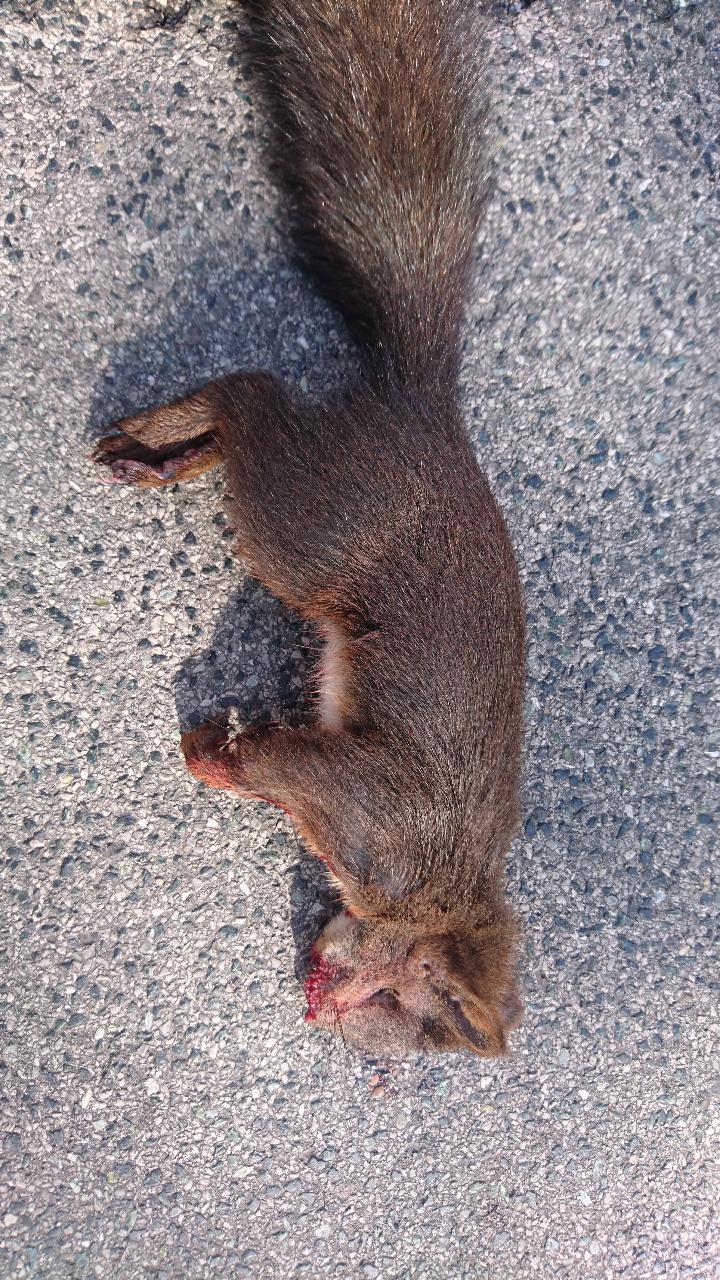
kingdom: Animalia
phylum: Chordata
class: Mammalia
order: Rodentia
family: Sciuridae
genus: Sciurus
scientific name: Sciurus vulgaris
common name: Eurasian red squirrel
